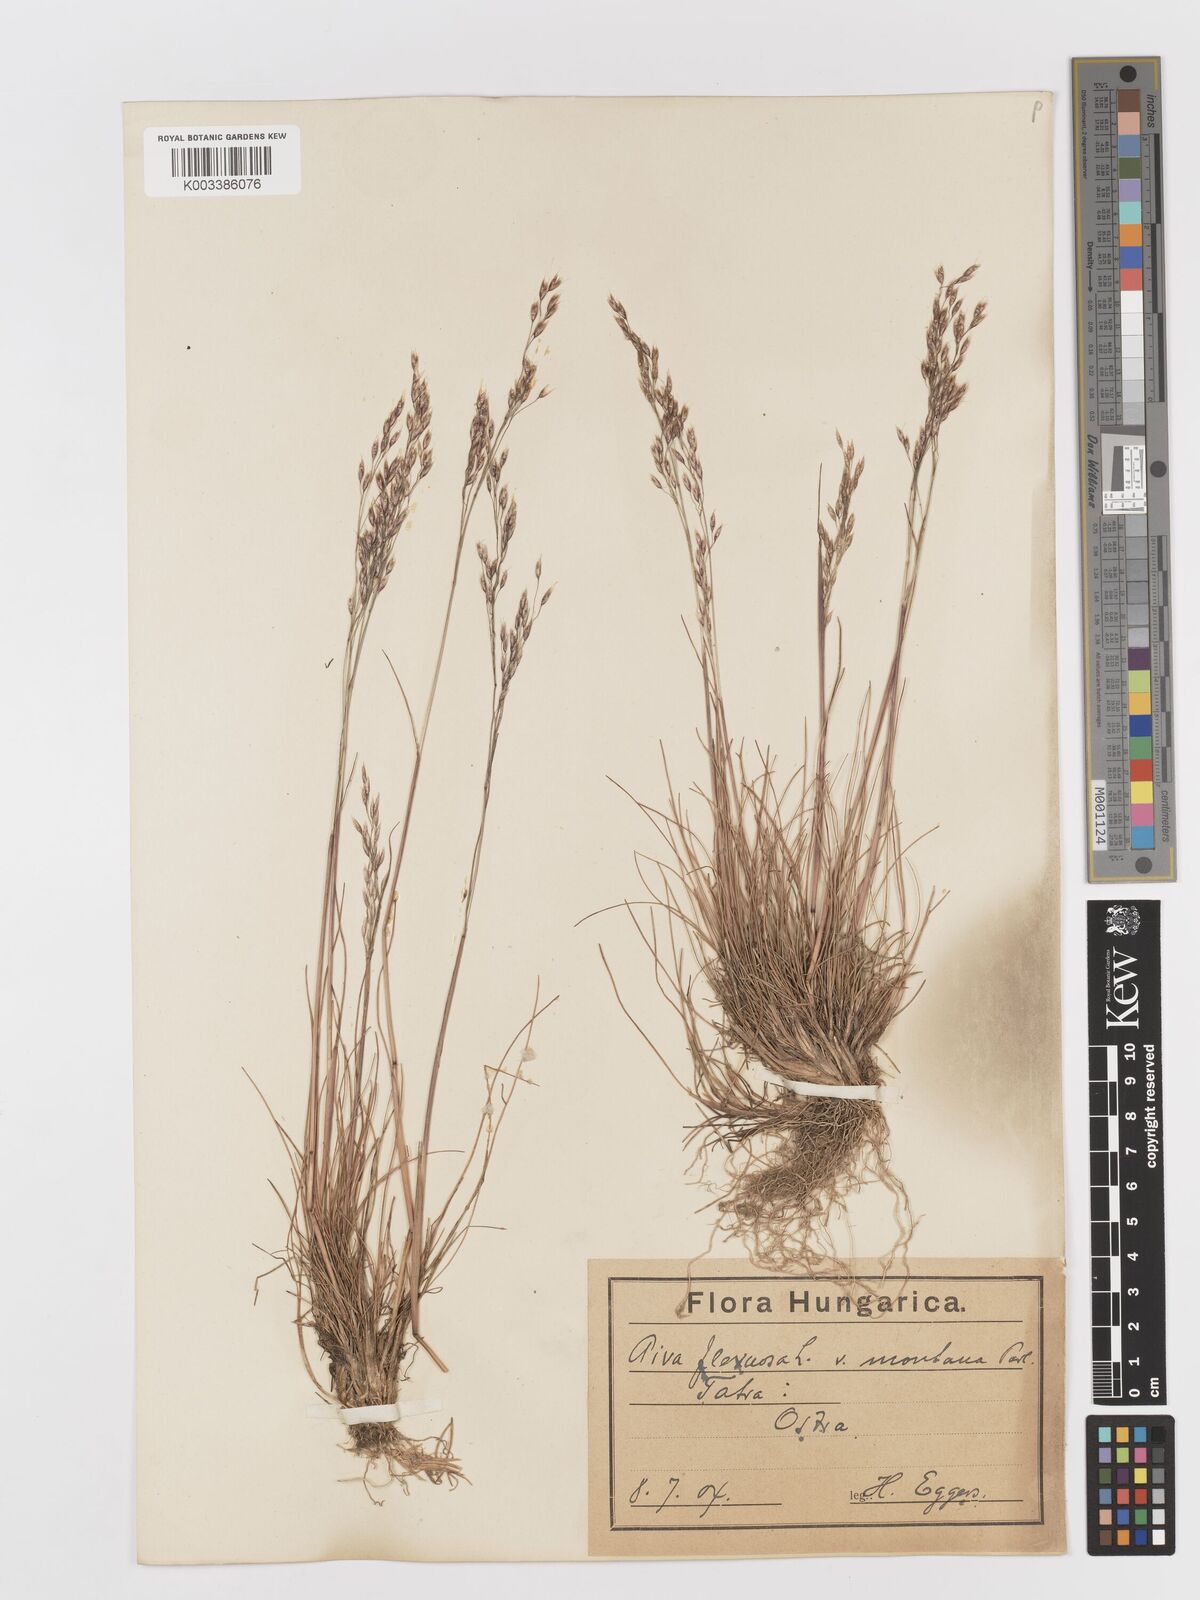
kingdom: Plantae
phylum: Tracheophyta
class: Liliopsida
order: Poales
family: Poaceae
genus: Avenella
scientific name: Avenella flexuosa
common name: Wavy hairgrass
